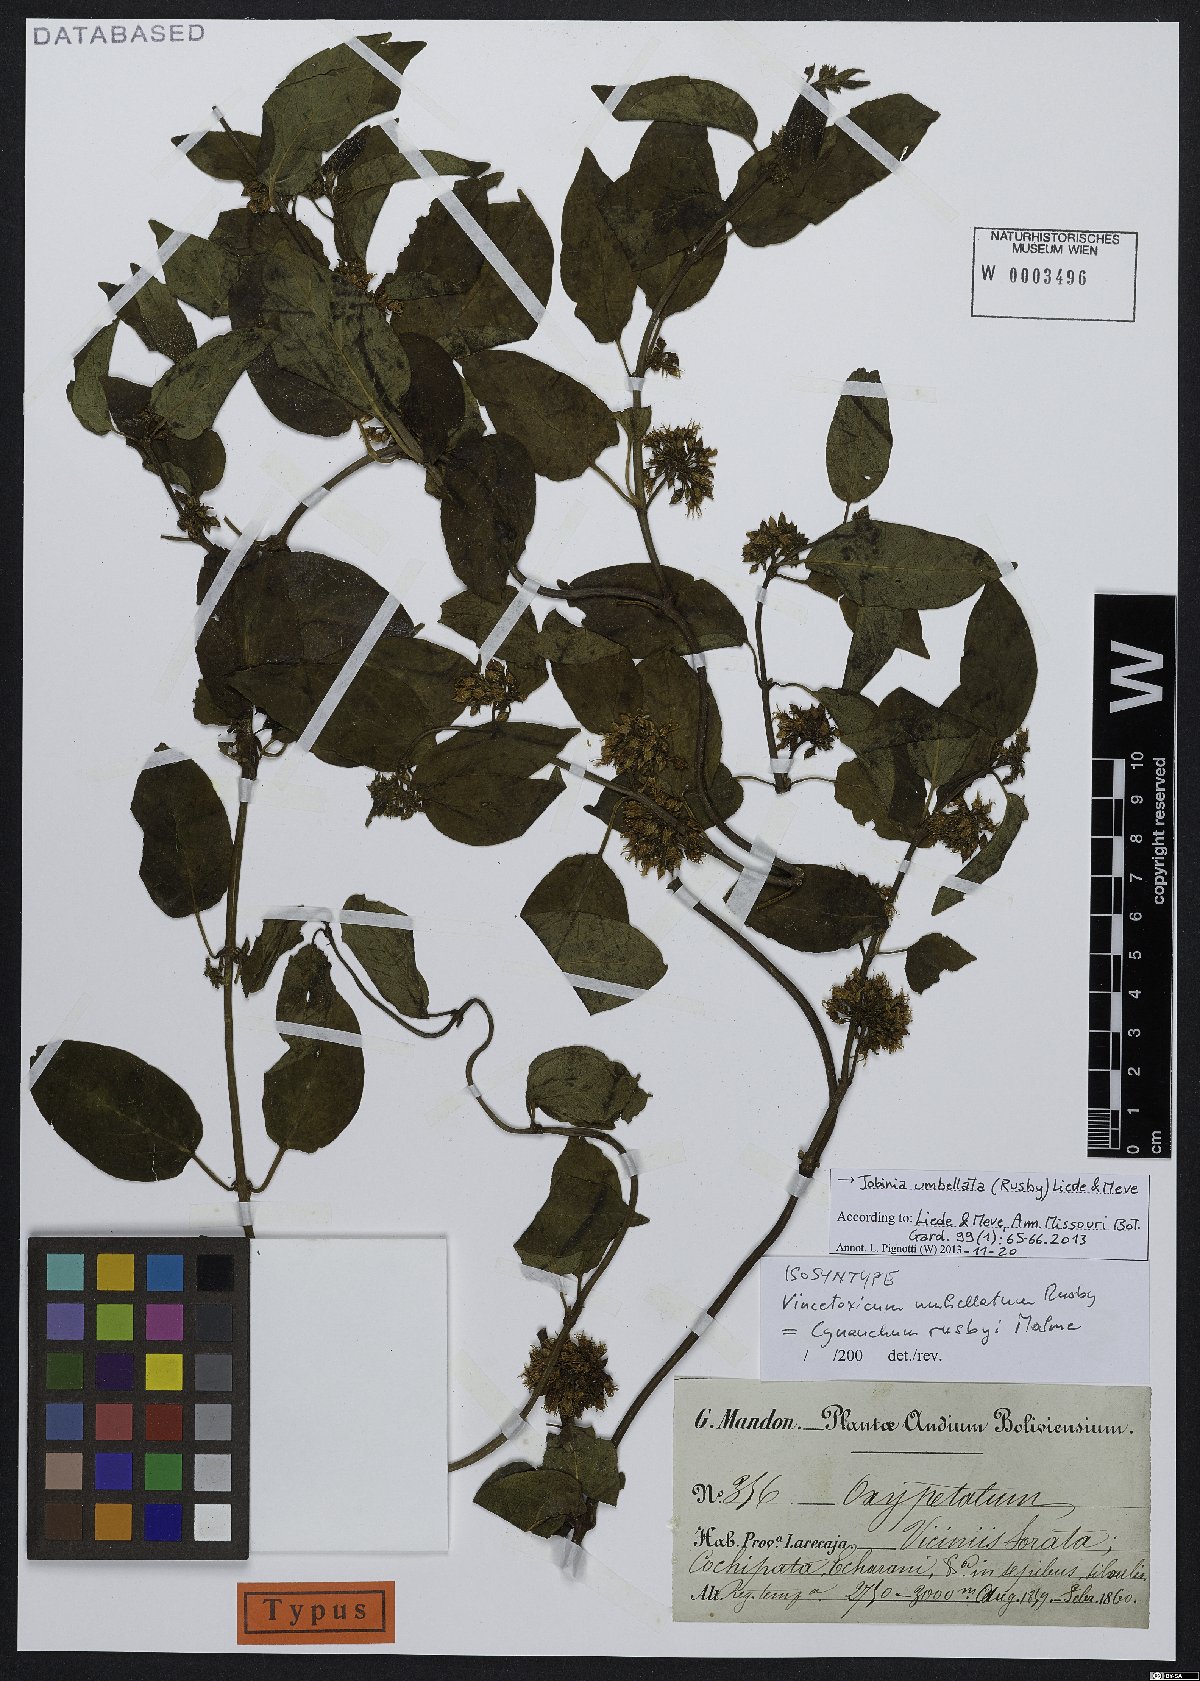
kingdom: Plantae
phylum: Tracheophyta
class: Magnoliopsida
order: Gentianales
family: Apocynaceae
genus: Jobinia
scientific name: Jobinia umbellata
